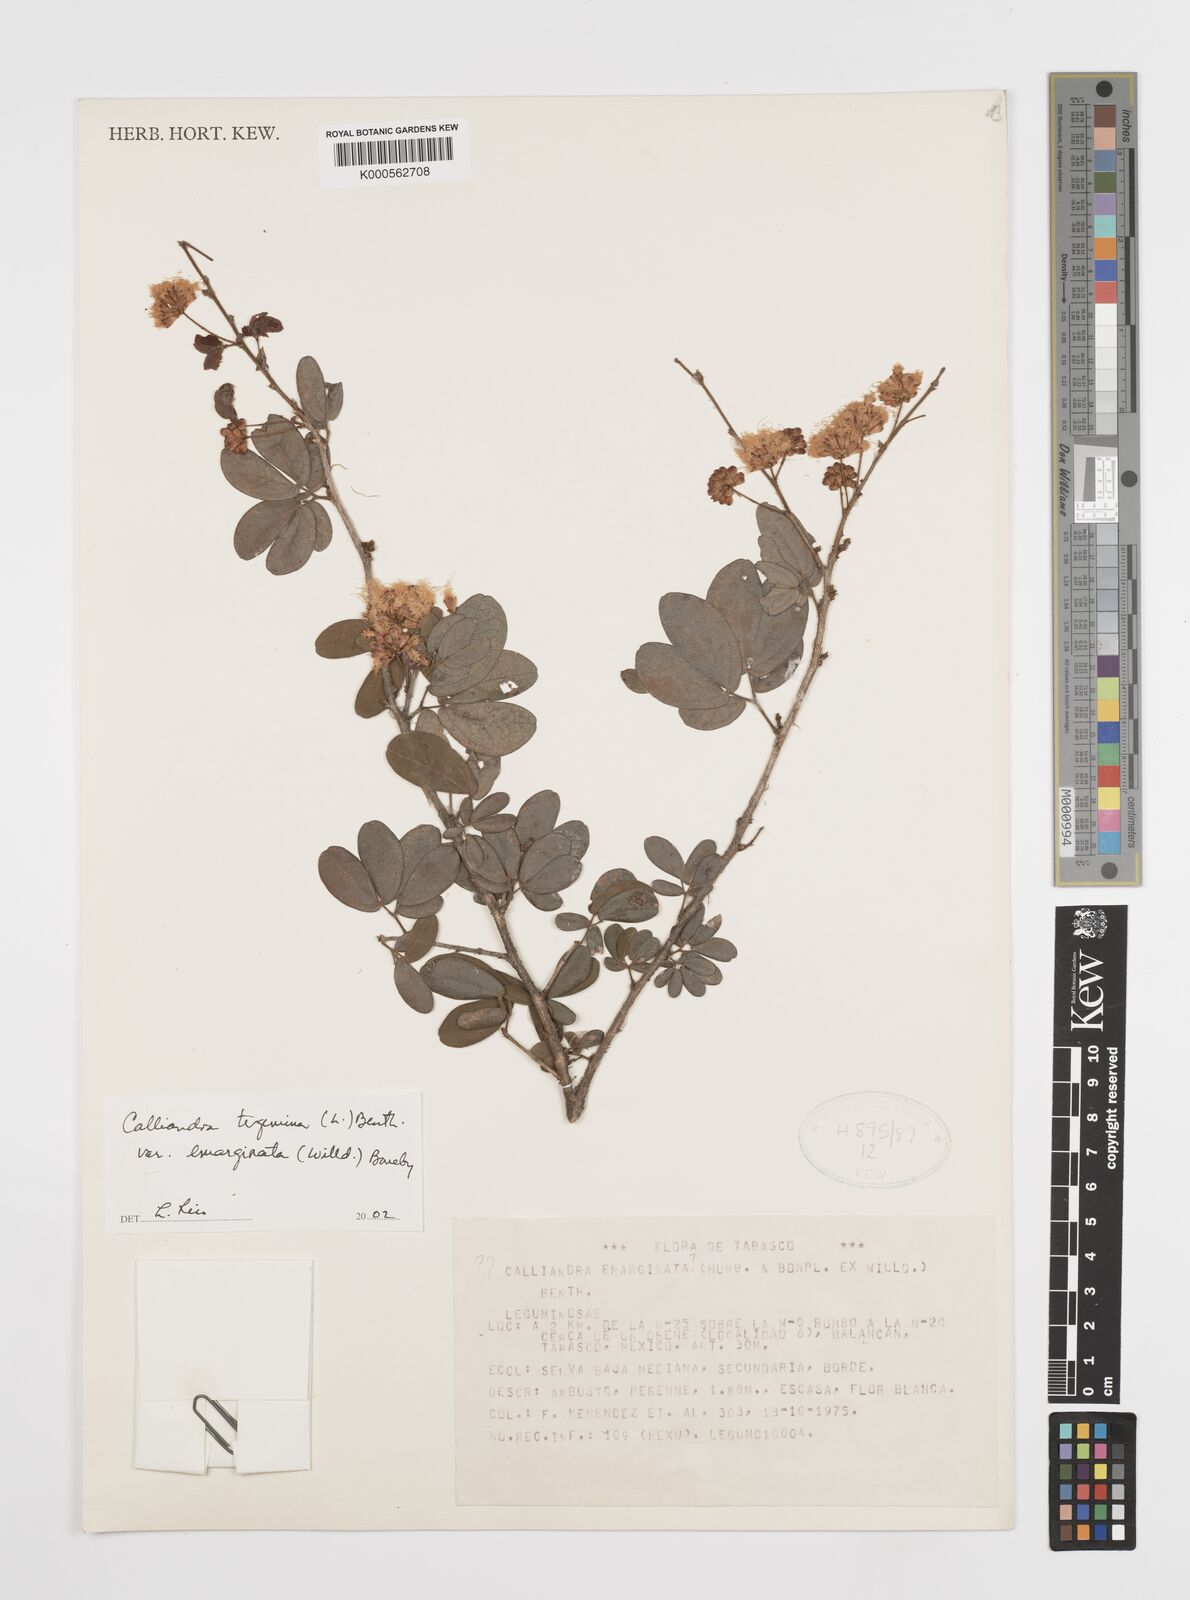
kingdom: Plantae
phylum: Tracheophyta
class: Magnoliopsida
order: Fabales
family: Fabaceae
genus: Calliandra
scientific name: Calliandra tergemina
